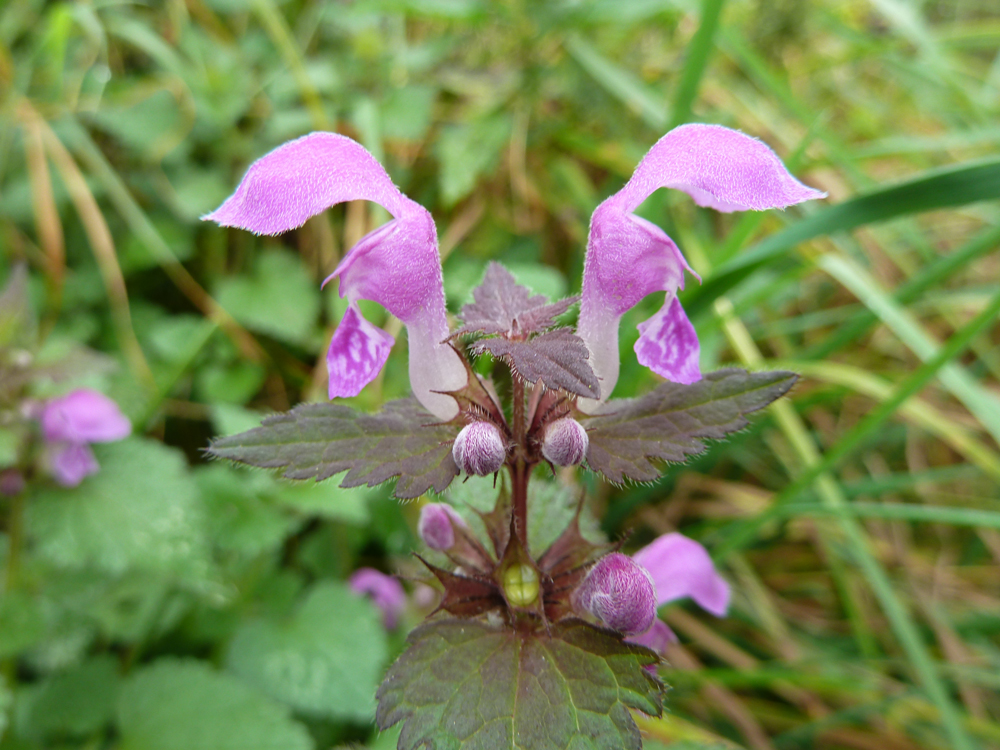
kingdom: Plantae
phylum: Tracheophyta
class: Magnoliopsida
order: Lamiales
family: Lamiaceae
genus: Lamium
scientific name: Lamium maculatum
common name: Spotted dead-nettle
